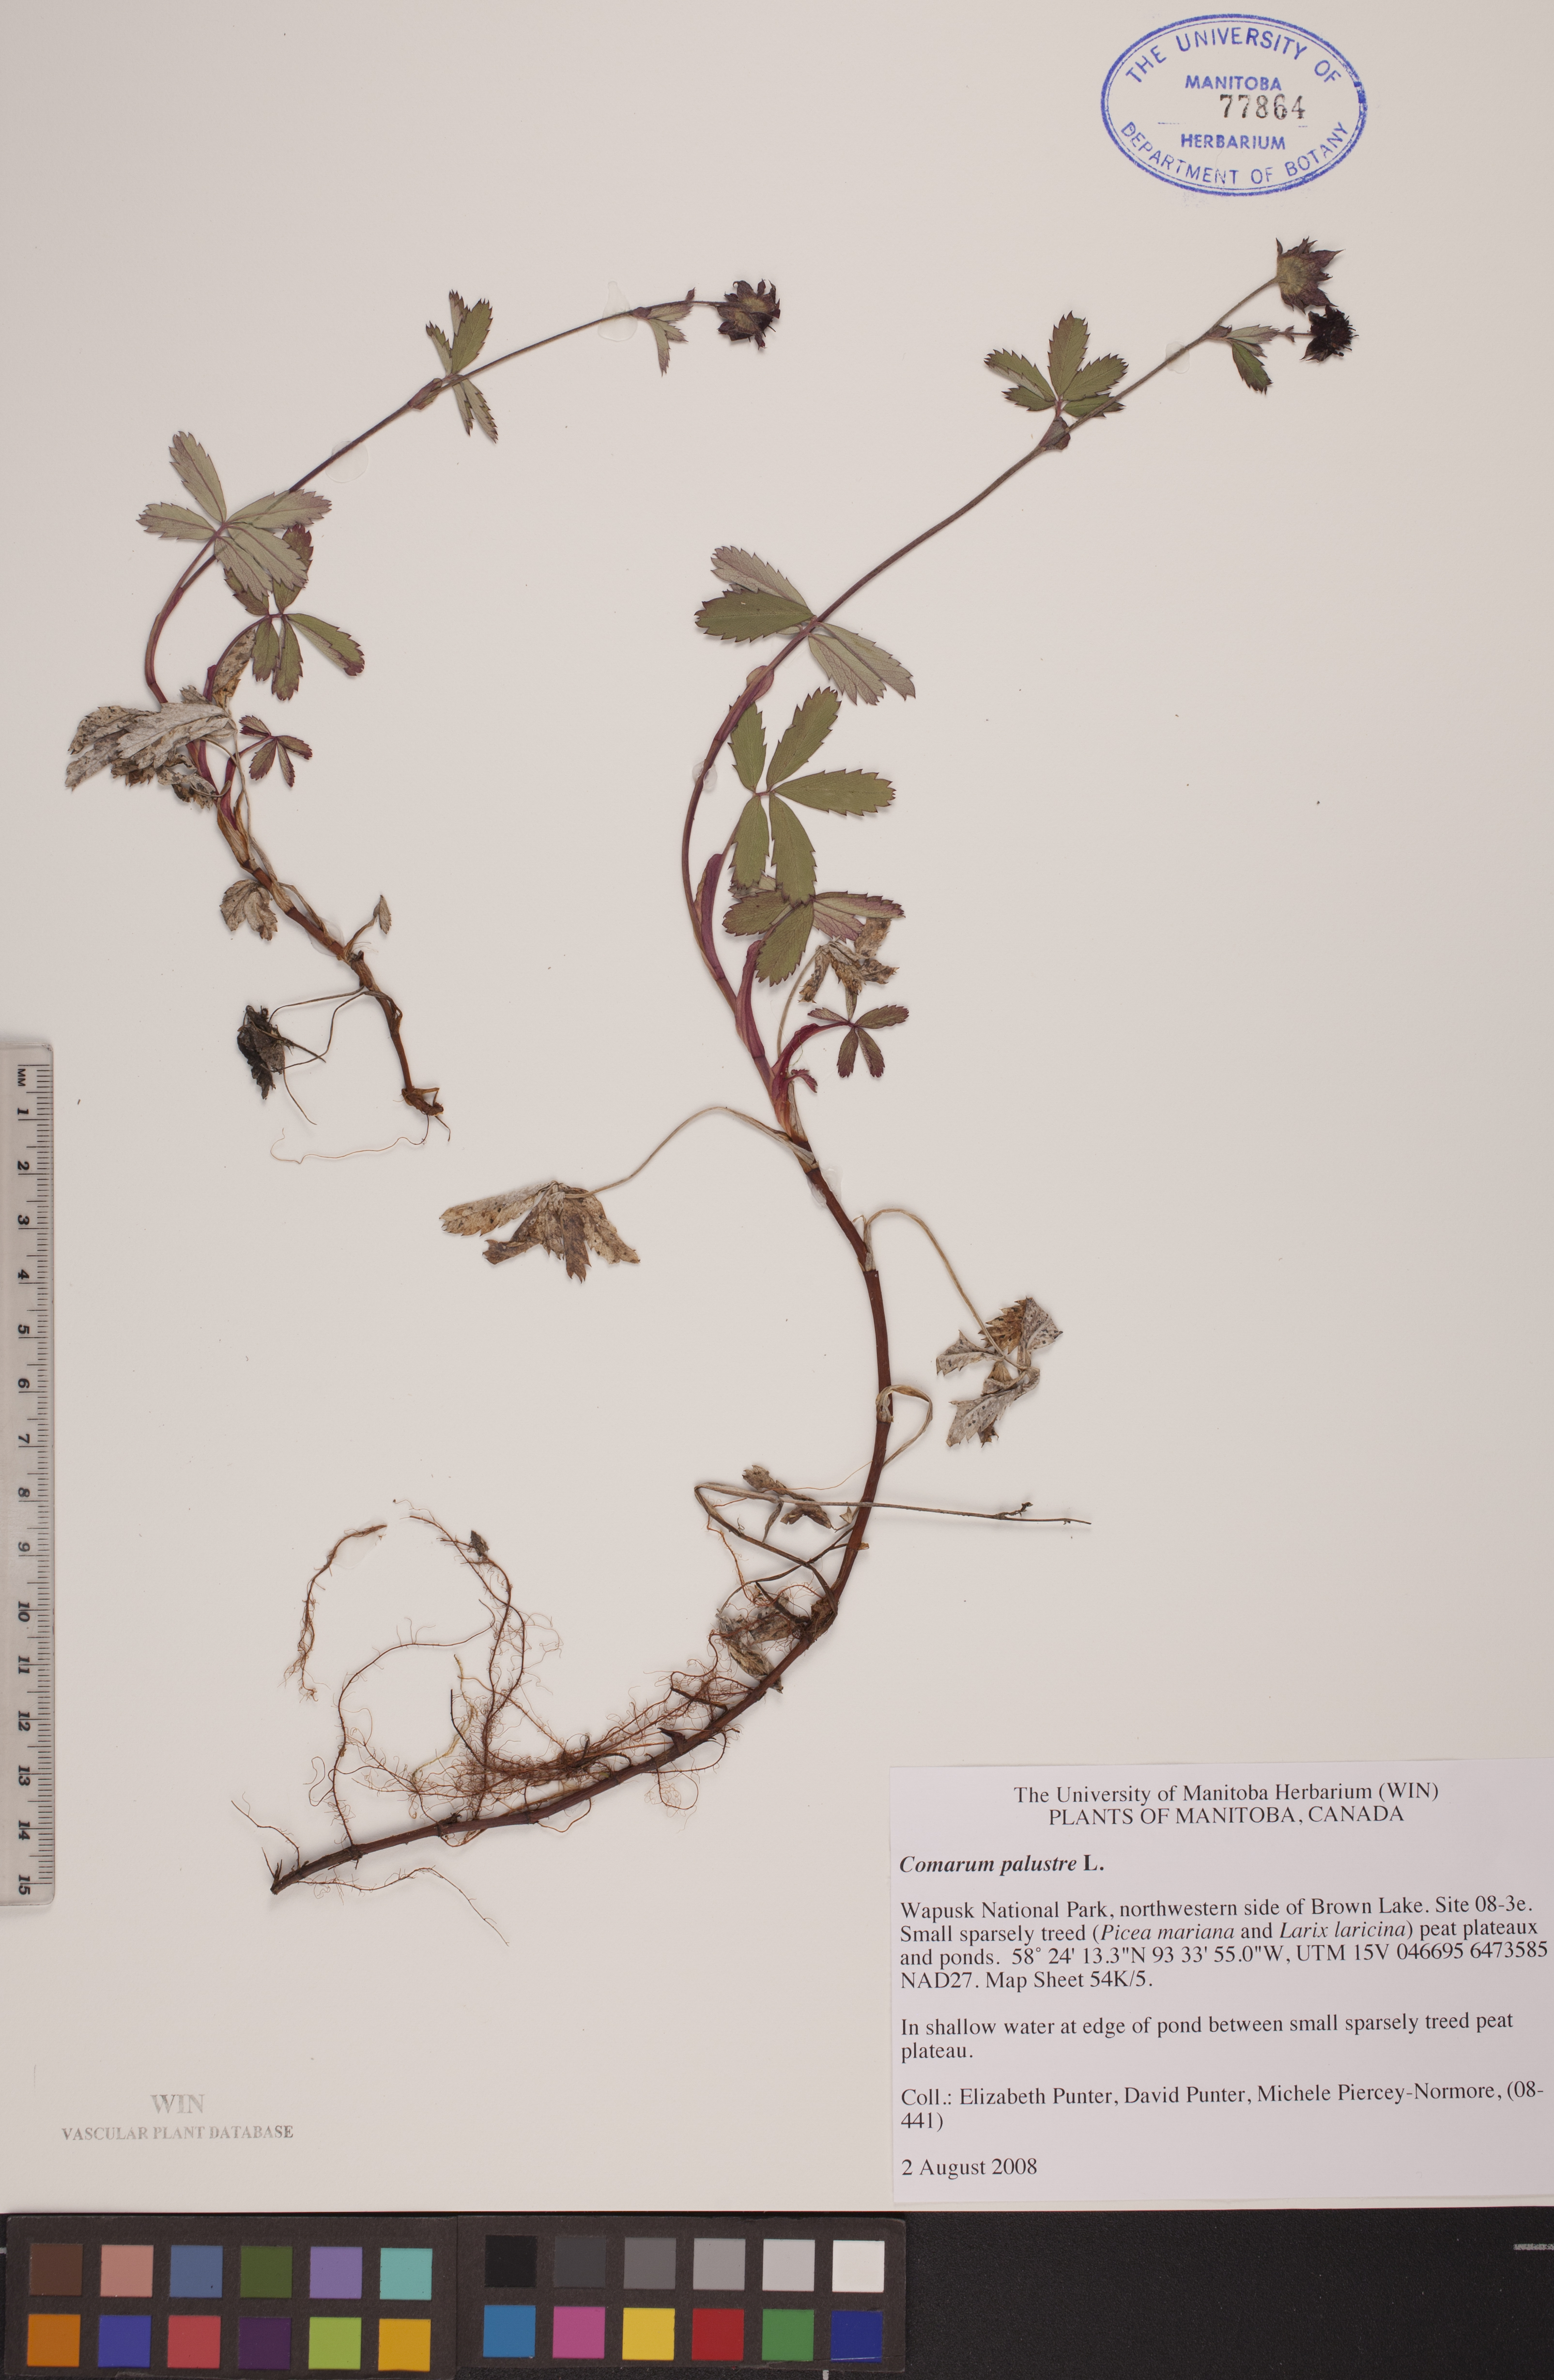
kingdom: Plantae
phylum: Tracheophyta
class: Magnoliopsida
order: Rosales
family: Rosaceae
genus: Comarum
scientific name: Comarum palustre
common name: Marsh cinquefoil
